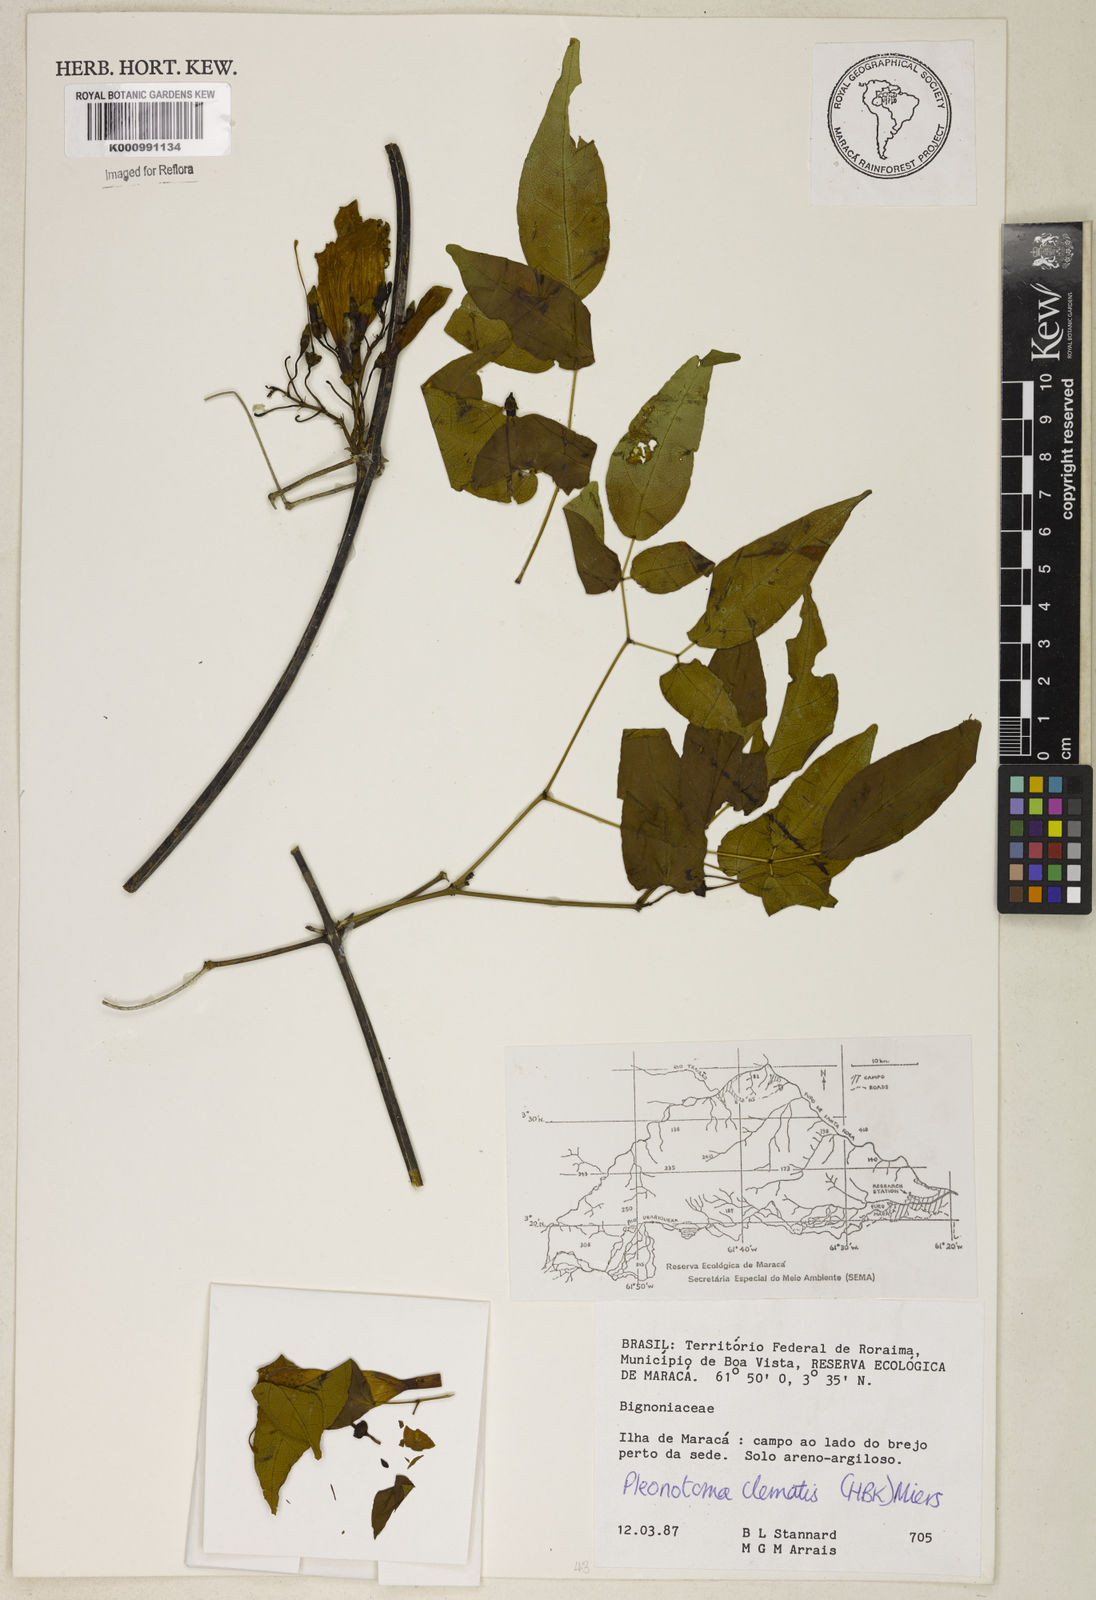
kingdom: Plantae
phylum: Tracheophyta
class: Magnoliopsida
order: Lamiales
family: Bignoniaceae
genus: Pleonotoma
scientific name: Pleonotoma clematis
